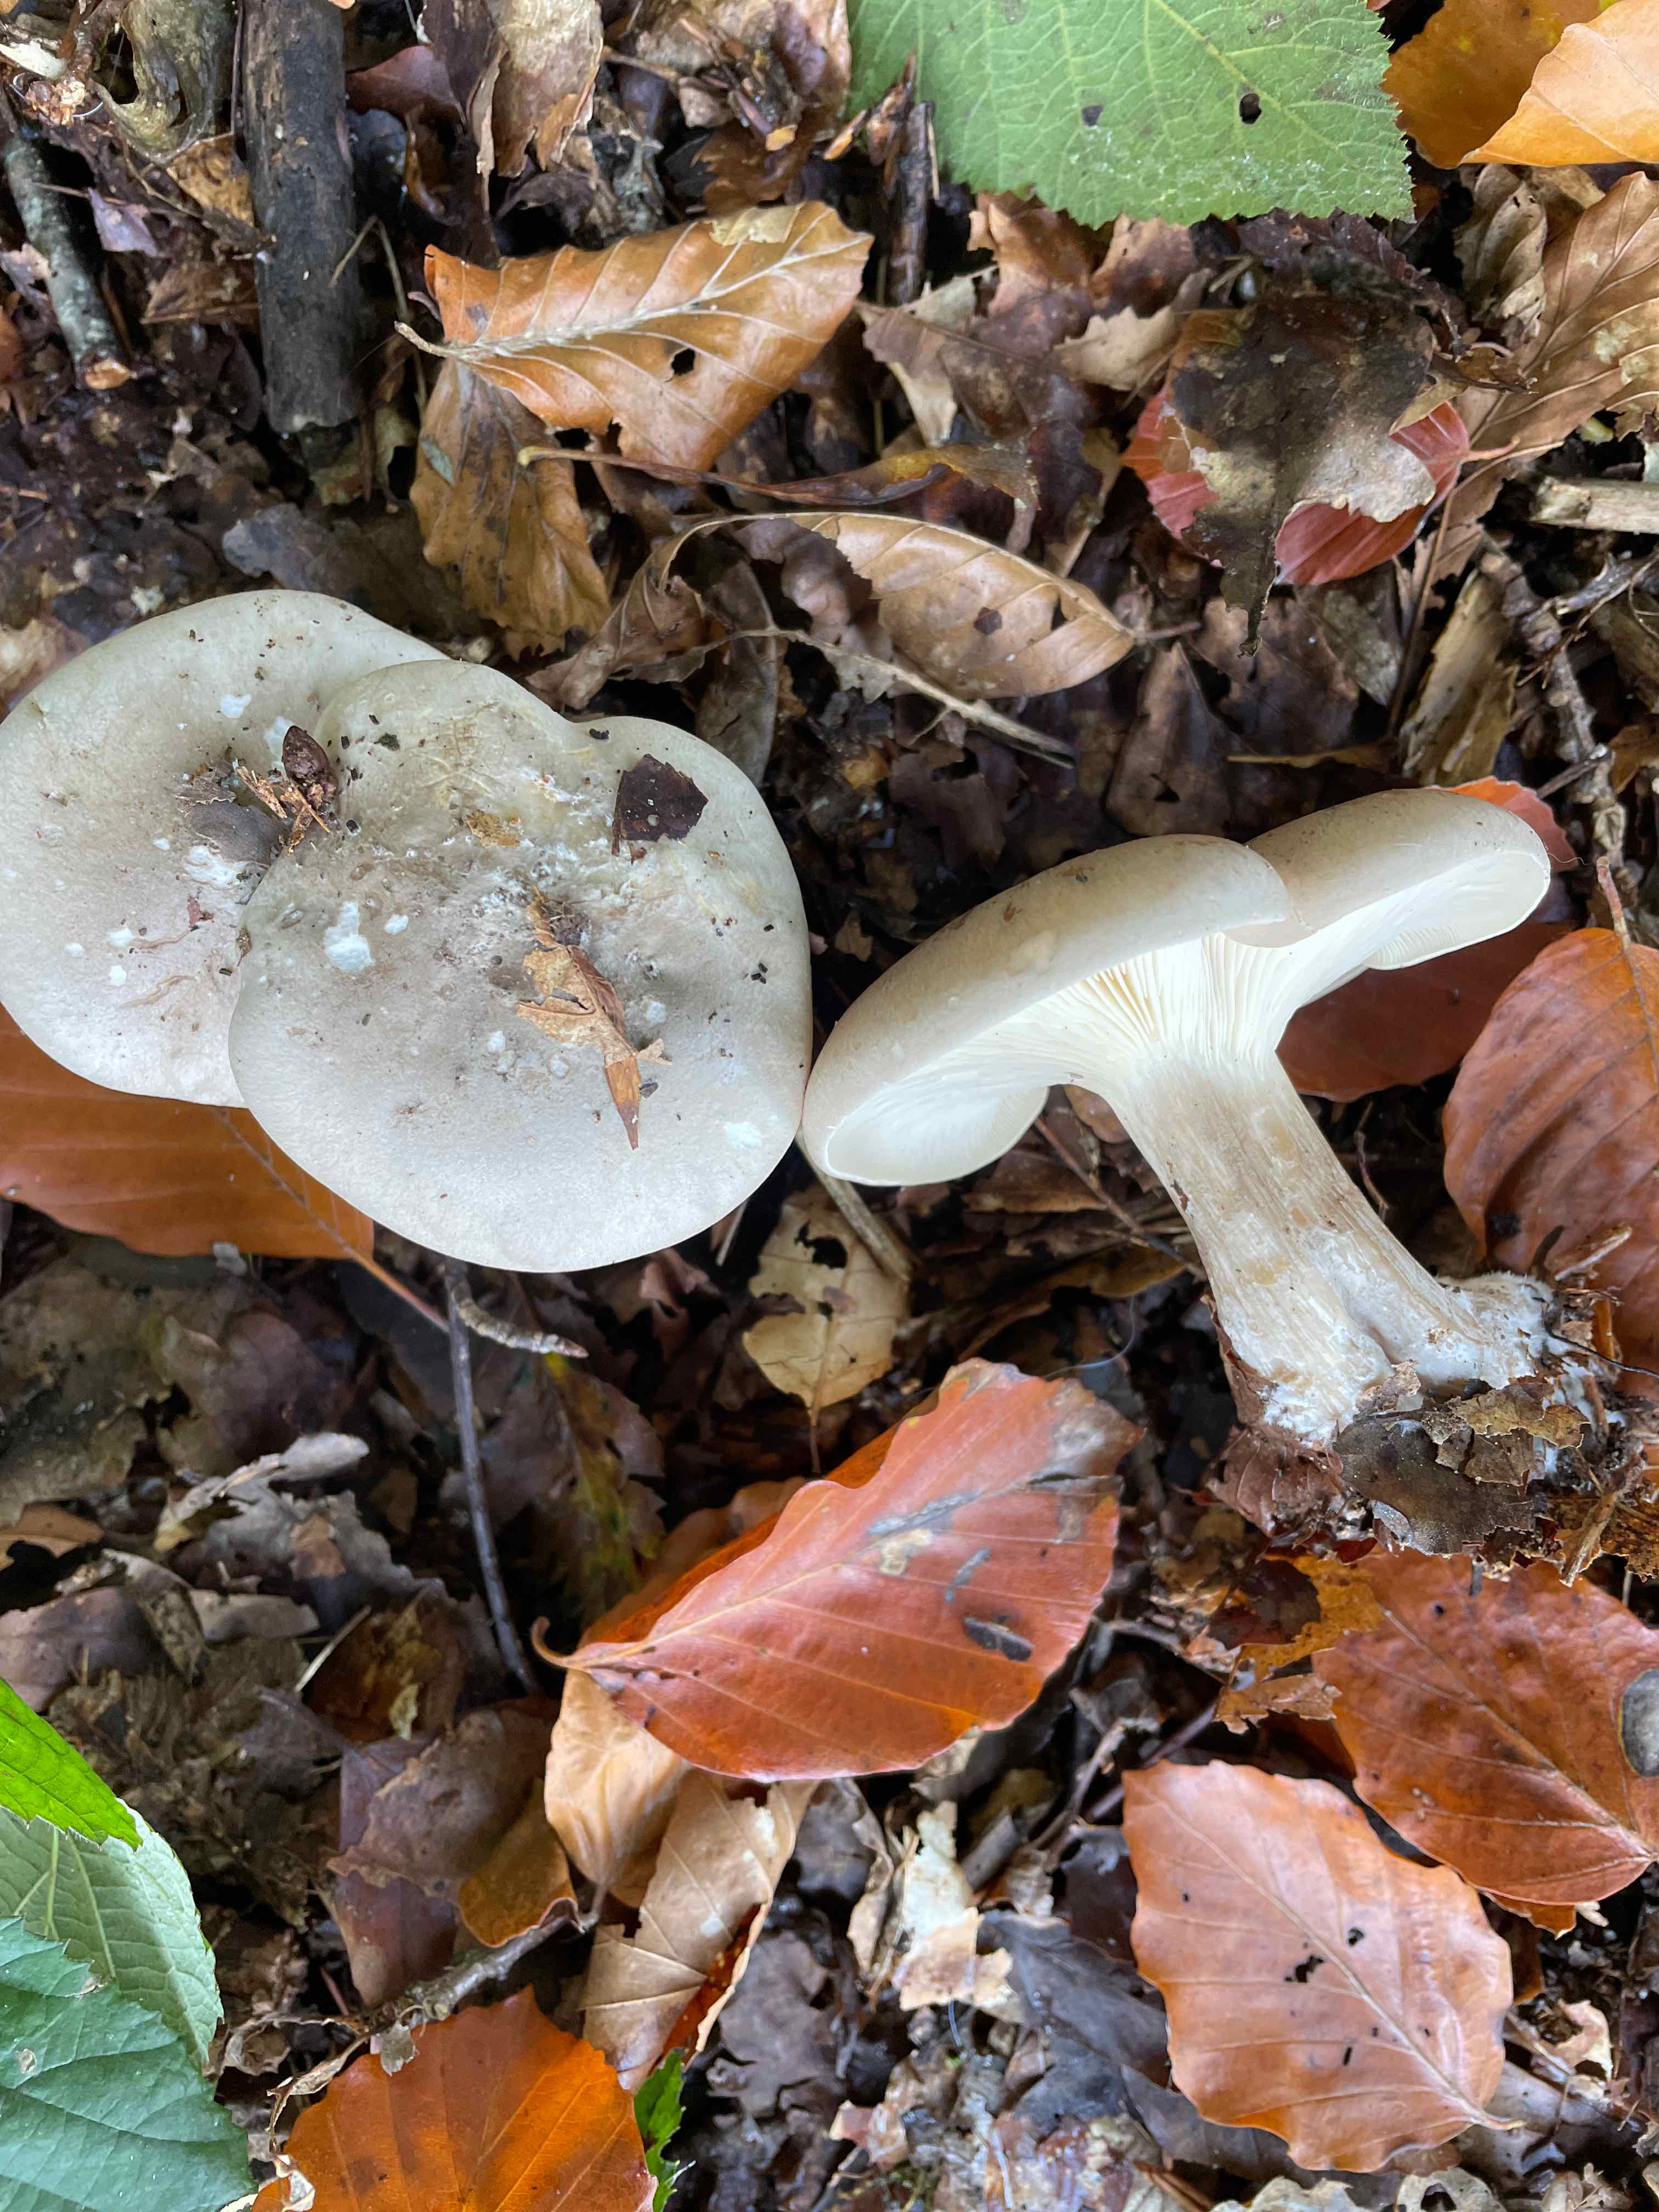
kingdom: Fungi
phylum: Basidiomycota
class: Agaricomycetes
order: Agaricales
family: Tricholomataceae
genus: Clitocybe
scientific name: Clitocybe nebularis
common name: tåge-tragthat
